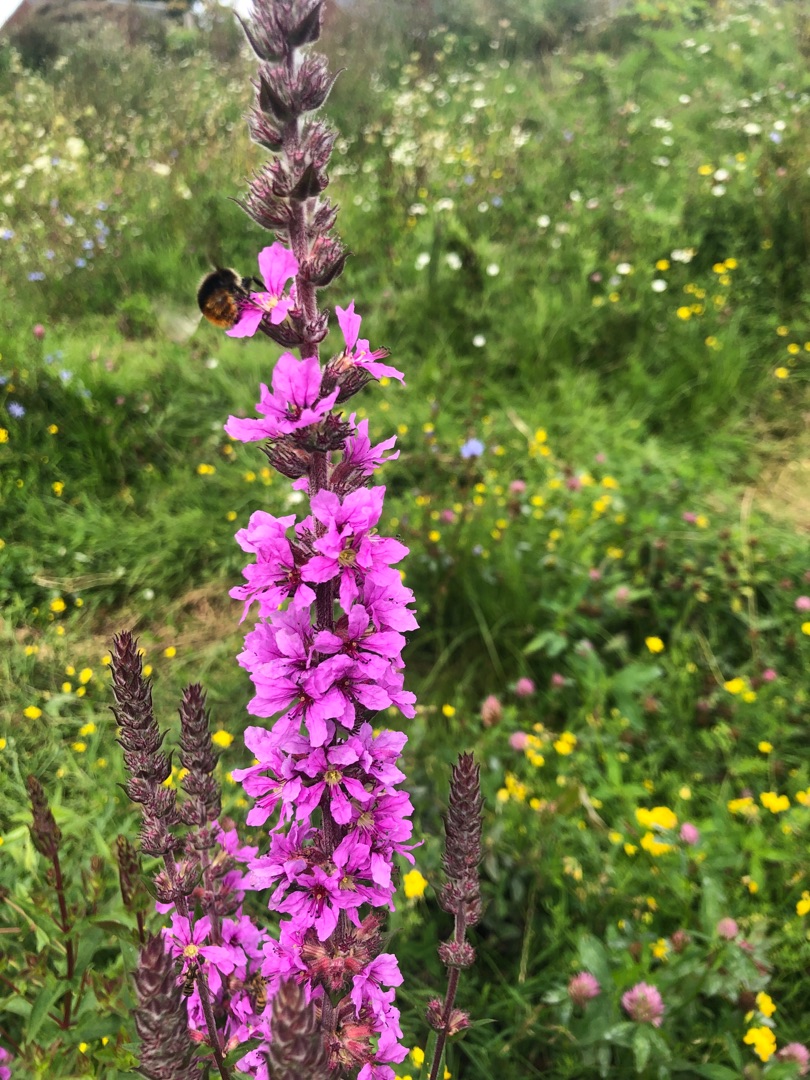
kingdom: Plantae
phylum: Tracheophyta
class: Magnoliopsida
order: Myrtales
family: Lythraceae
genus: Lythrum
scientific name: Lythrum salicaria
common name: Kattehale
